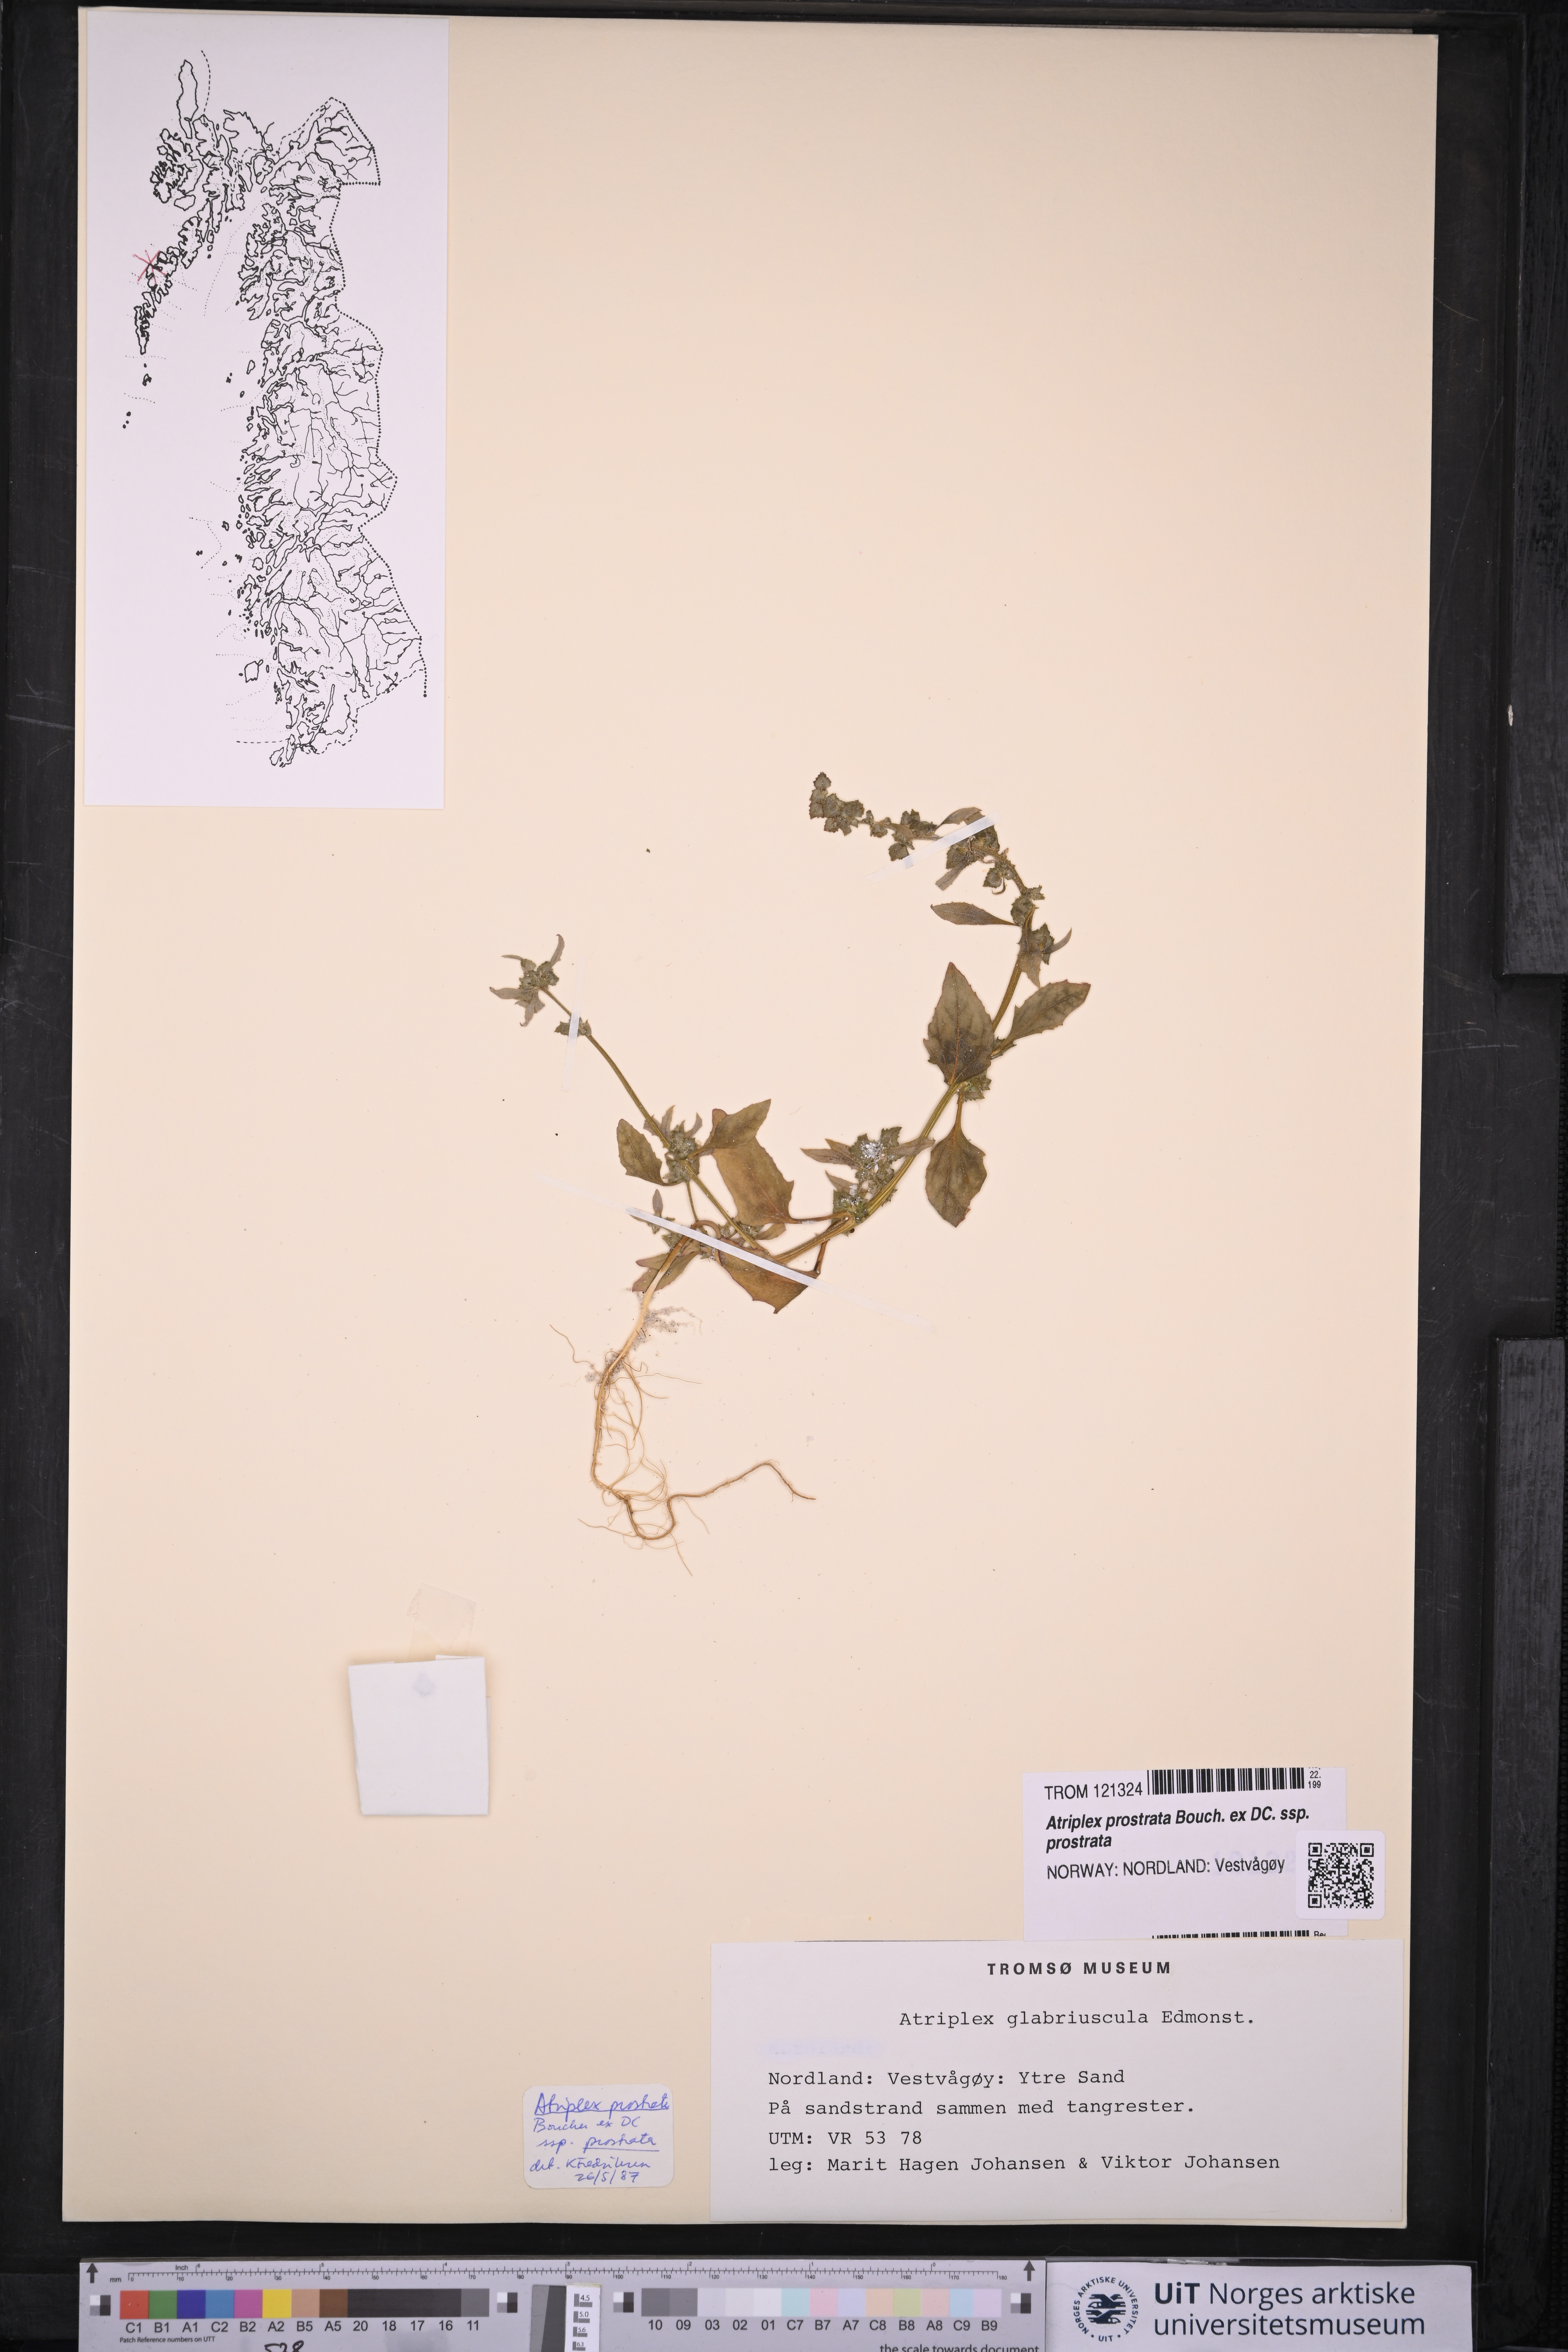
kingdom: Plantae
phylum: Tracheophyta
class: Magnoliopsida
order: Caryophyllales
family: Amaranthaceae
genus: Atriplex
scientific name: Atriplex prostrata
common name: Spear-leaved orache
